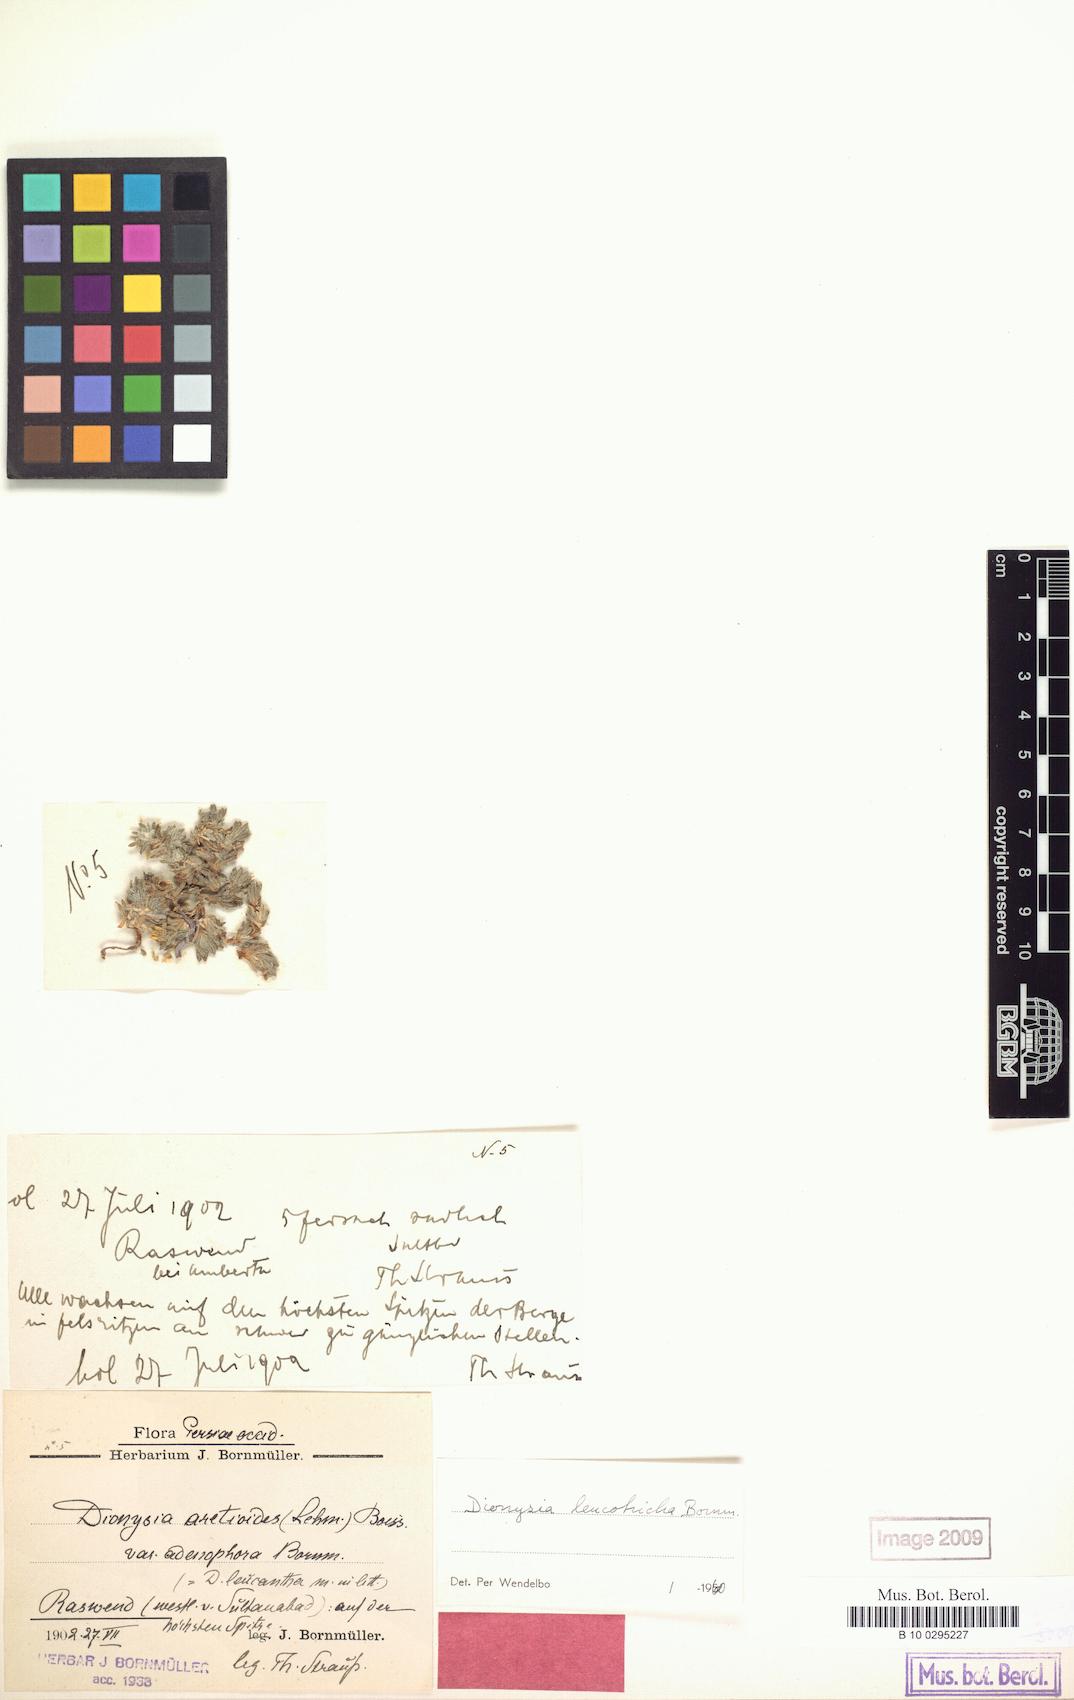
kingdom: Plantae
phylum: Tracheophyta
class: Magnoliopsida
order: Ericales
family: Primulaceae
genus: Dionysia
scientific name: Dionysia leucotricha
